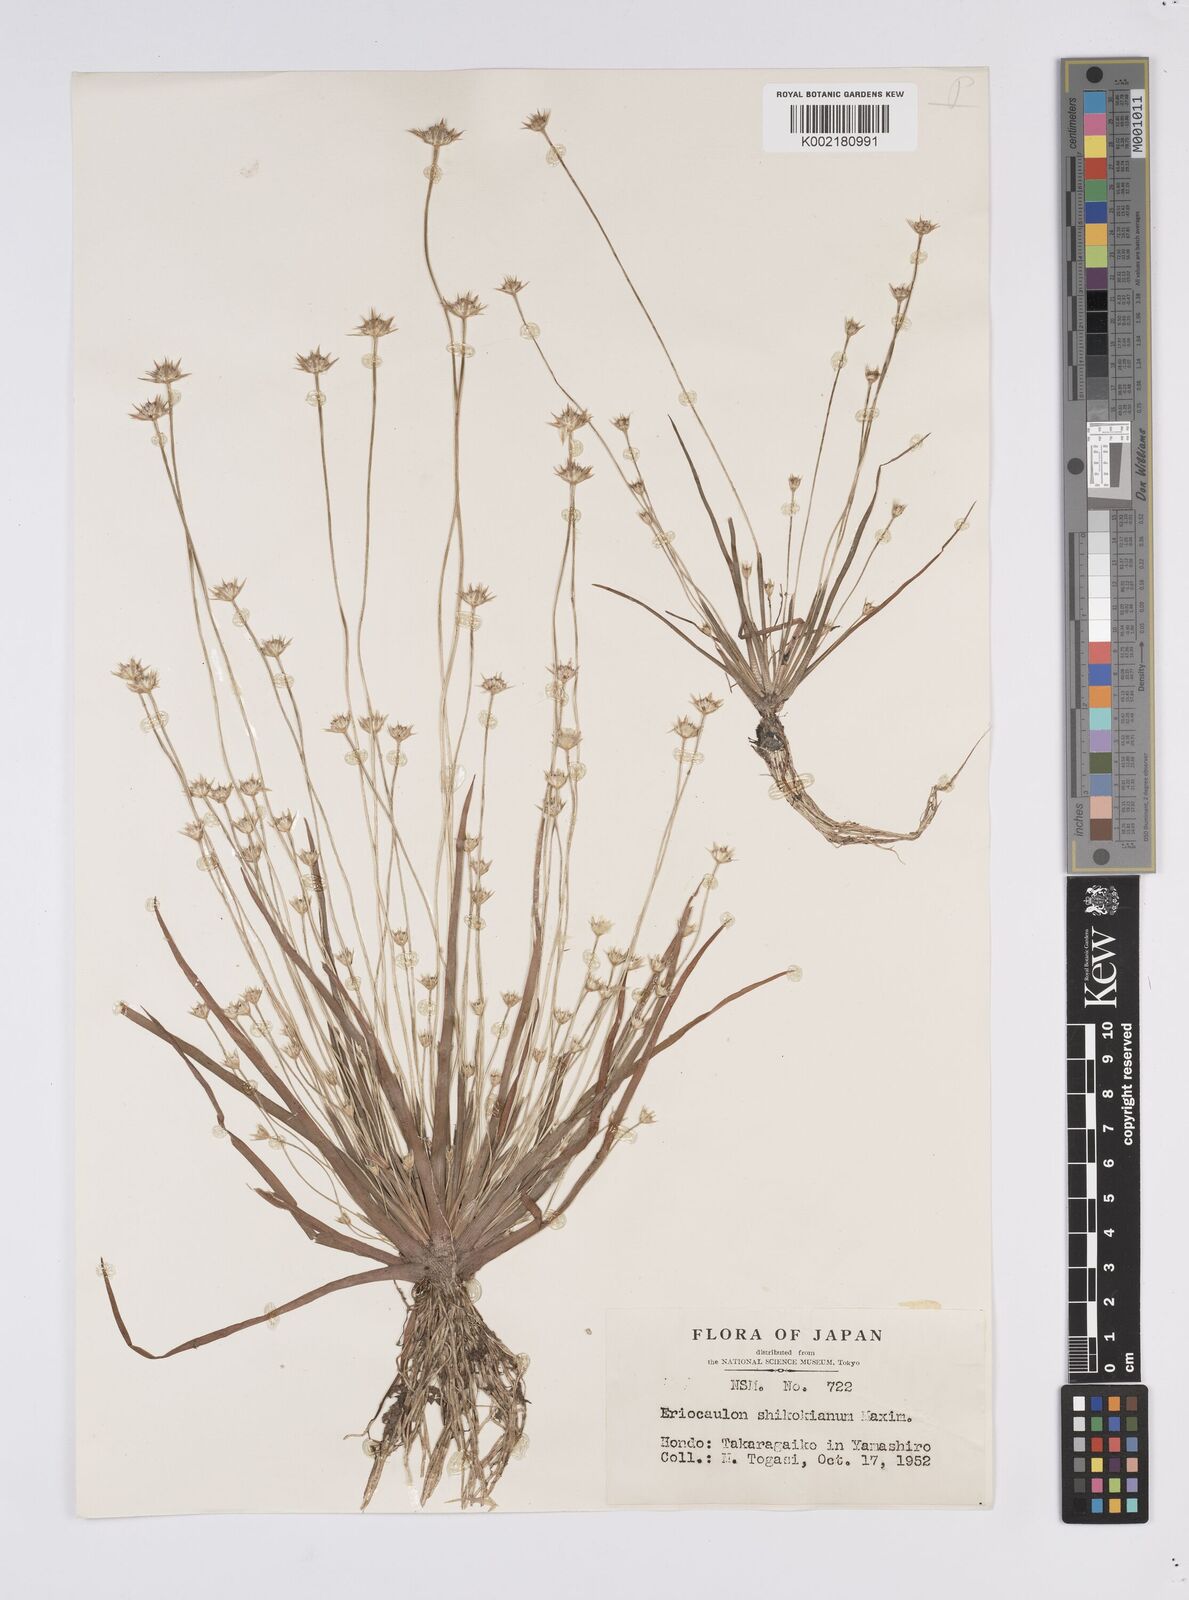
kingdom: Plantae
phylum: Tracheophyta
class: Liliopsida
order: Poales
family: Eriocaulaceae
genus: Eriocaulon
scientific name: Eriocaulon miquelianum
